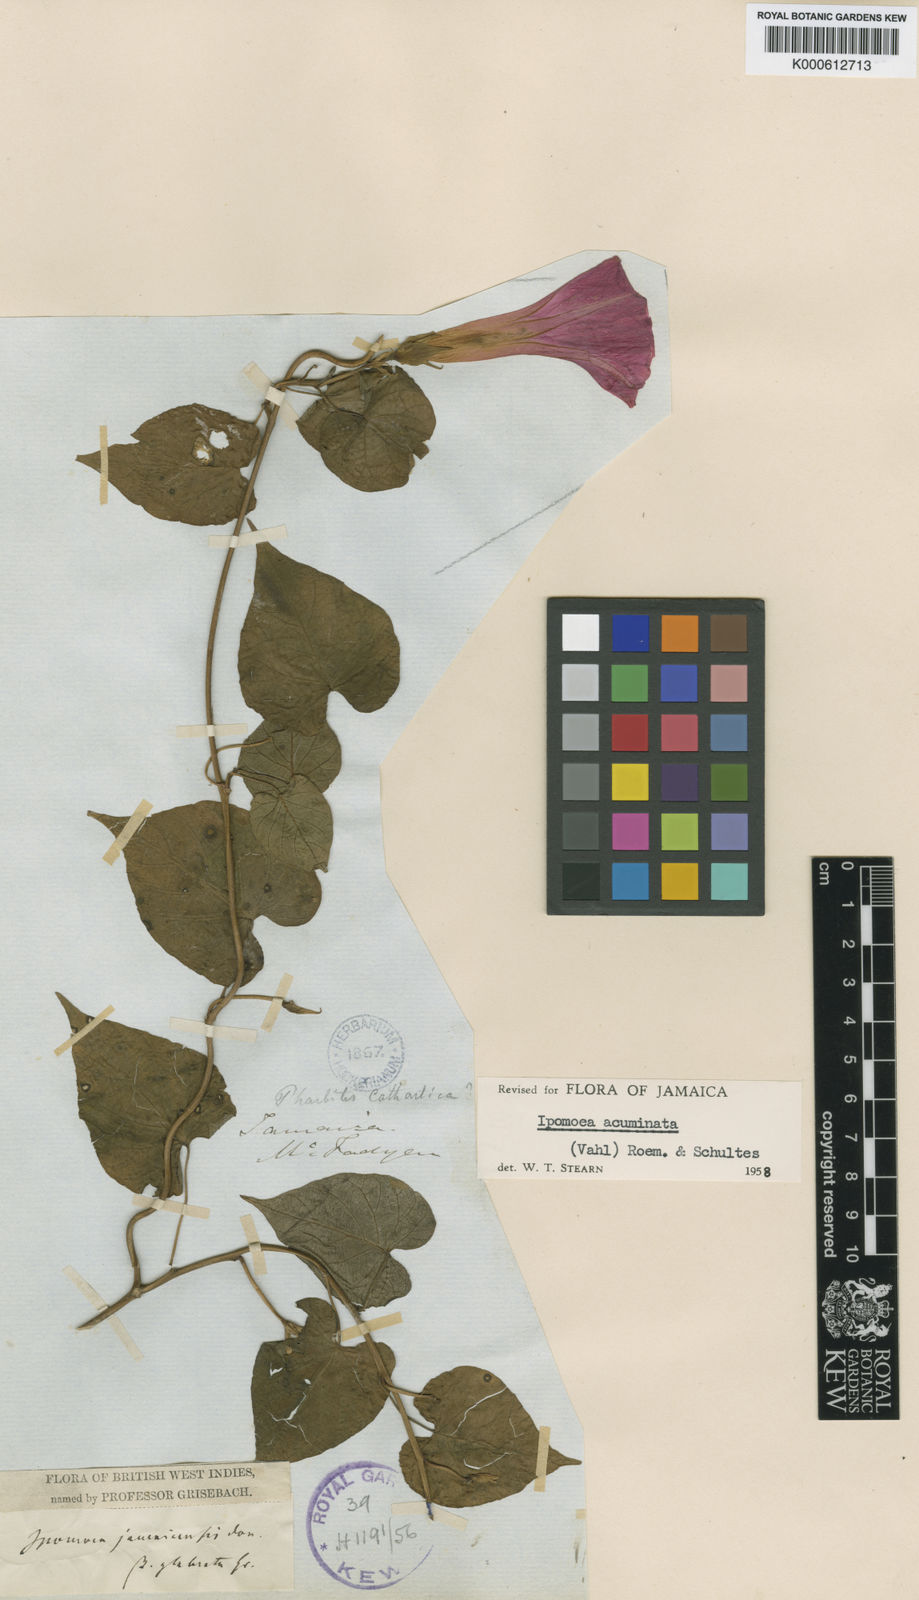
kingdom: Plantae
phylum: Tracheophyta
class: Magnoliopsida
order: Solanales
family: Convolvulaceae
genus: Ipomoea
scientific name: Ipomoea indica
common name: Blue dawnflower
